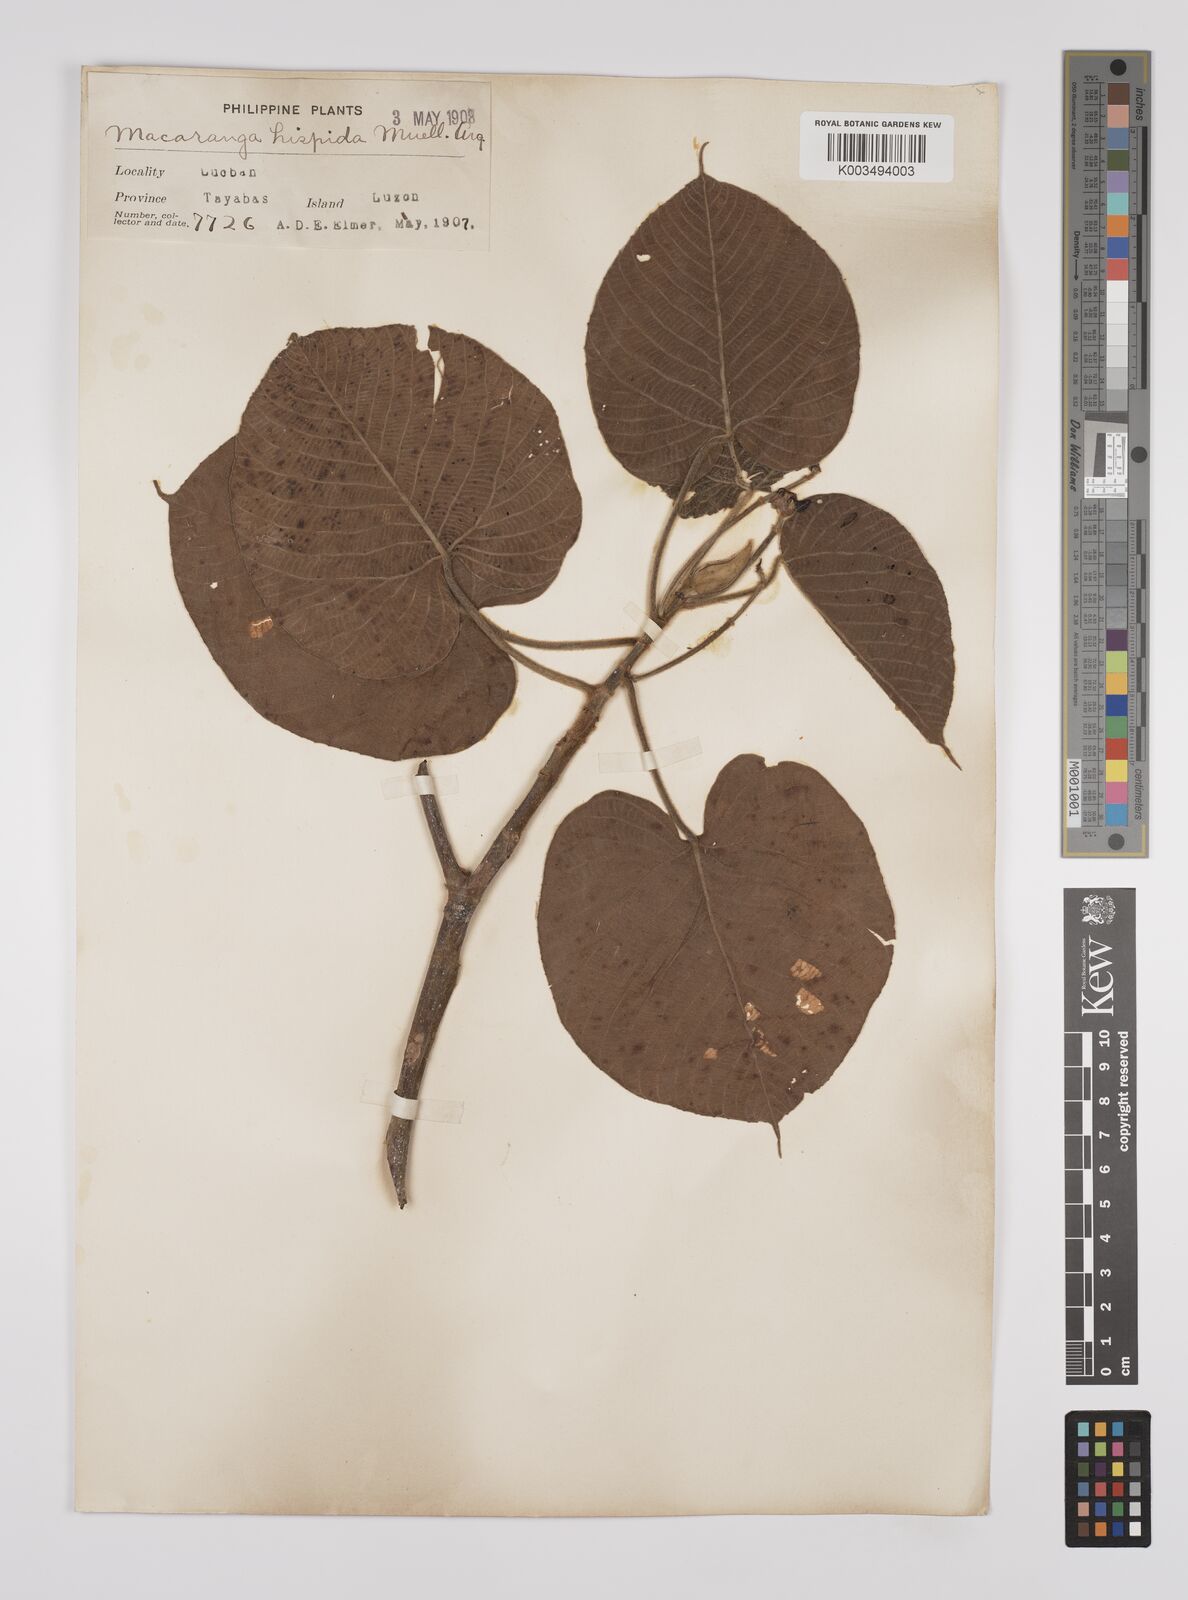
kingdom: Plantae
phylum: Tracheophyta
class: Magnoliopsida
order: Malpighiales
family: Euphorbiaceae
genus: Macaranga
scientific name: Macaranga hispida
